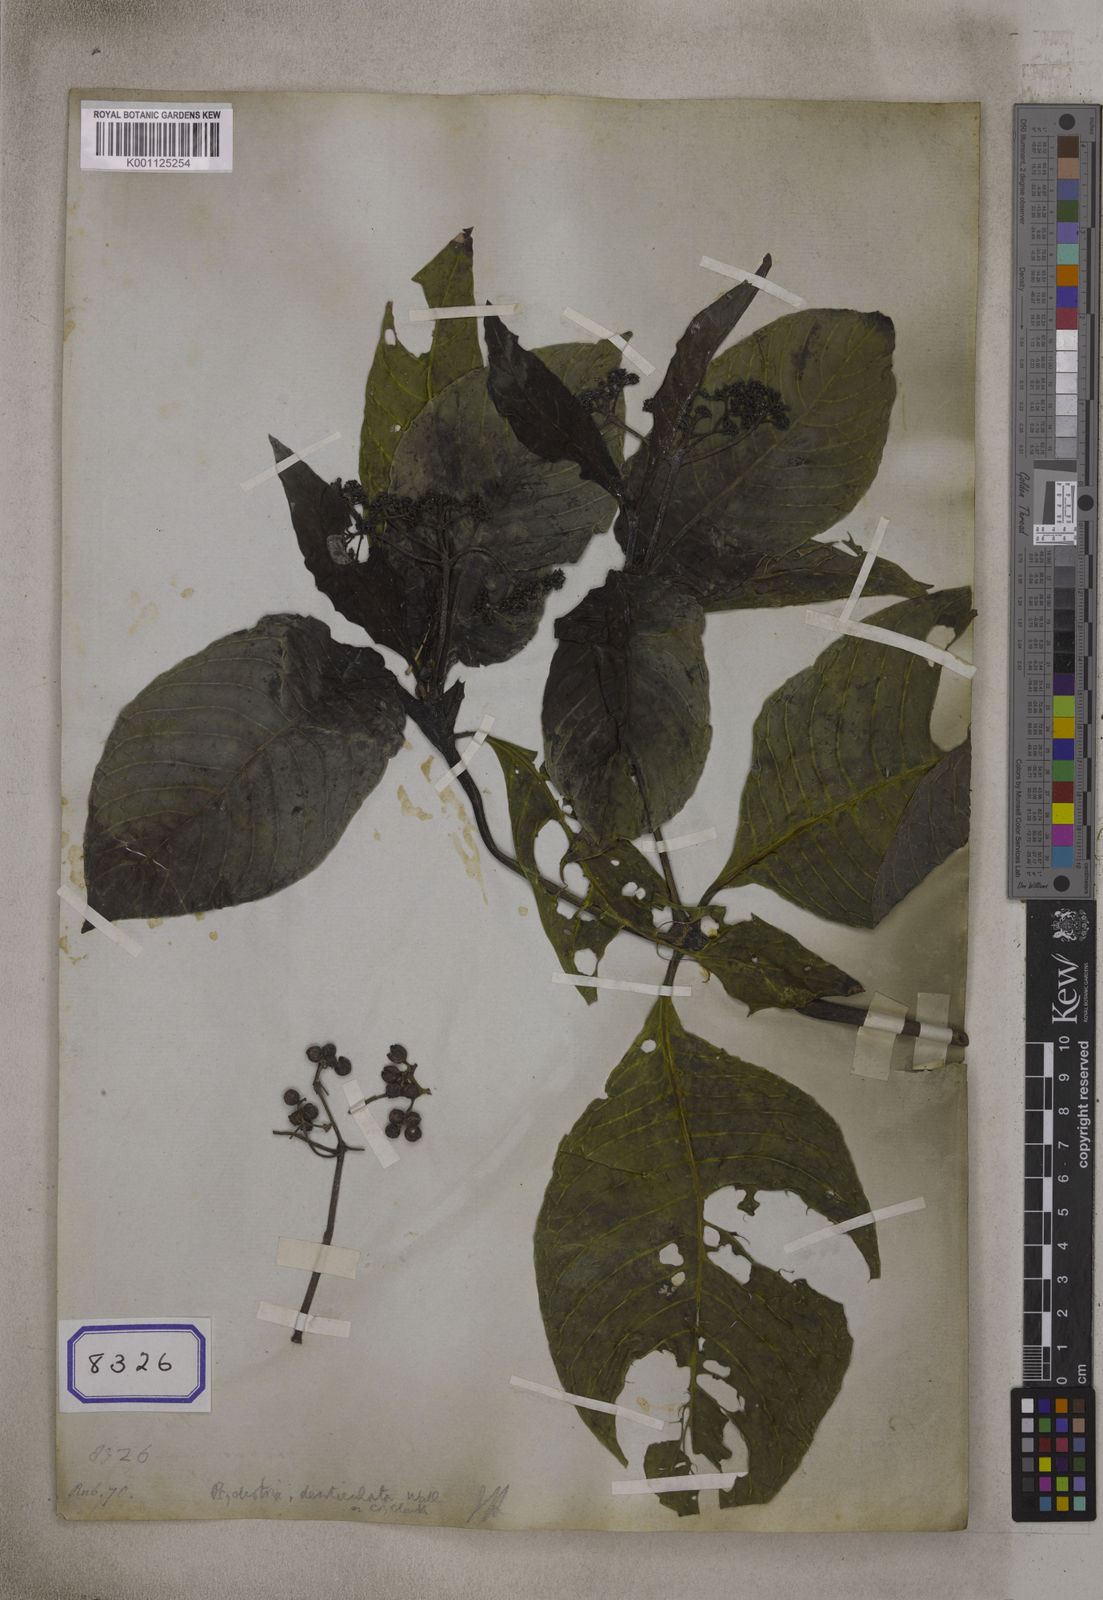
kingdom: Plantae
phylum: Tracheophyta
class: Magnoliopsida
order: Gentianales
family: Rubiaceae
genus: Psychotria
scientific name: Psychotria denticulata
